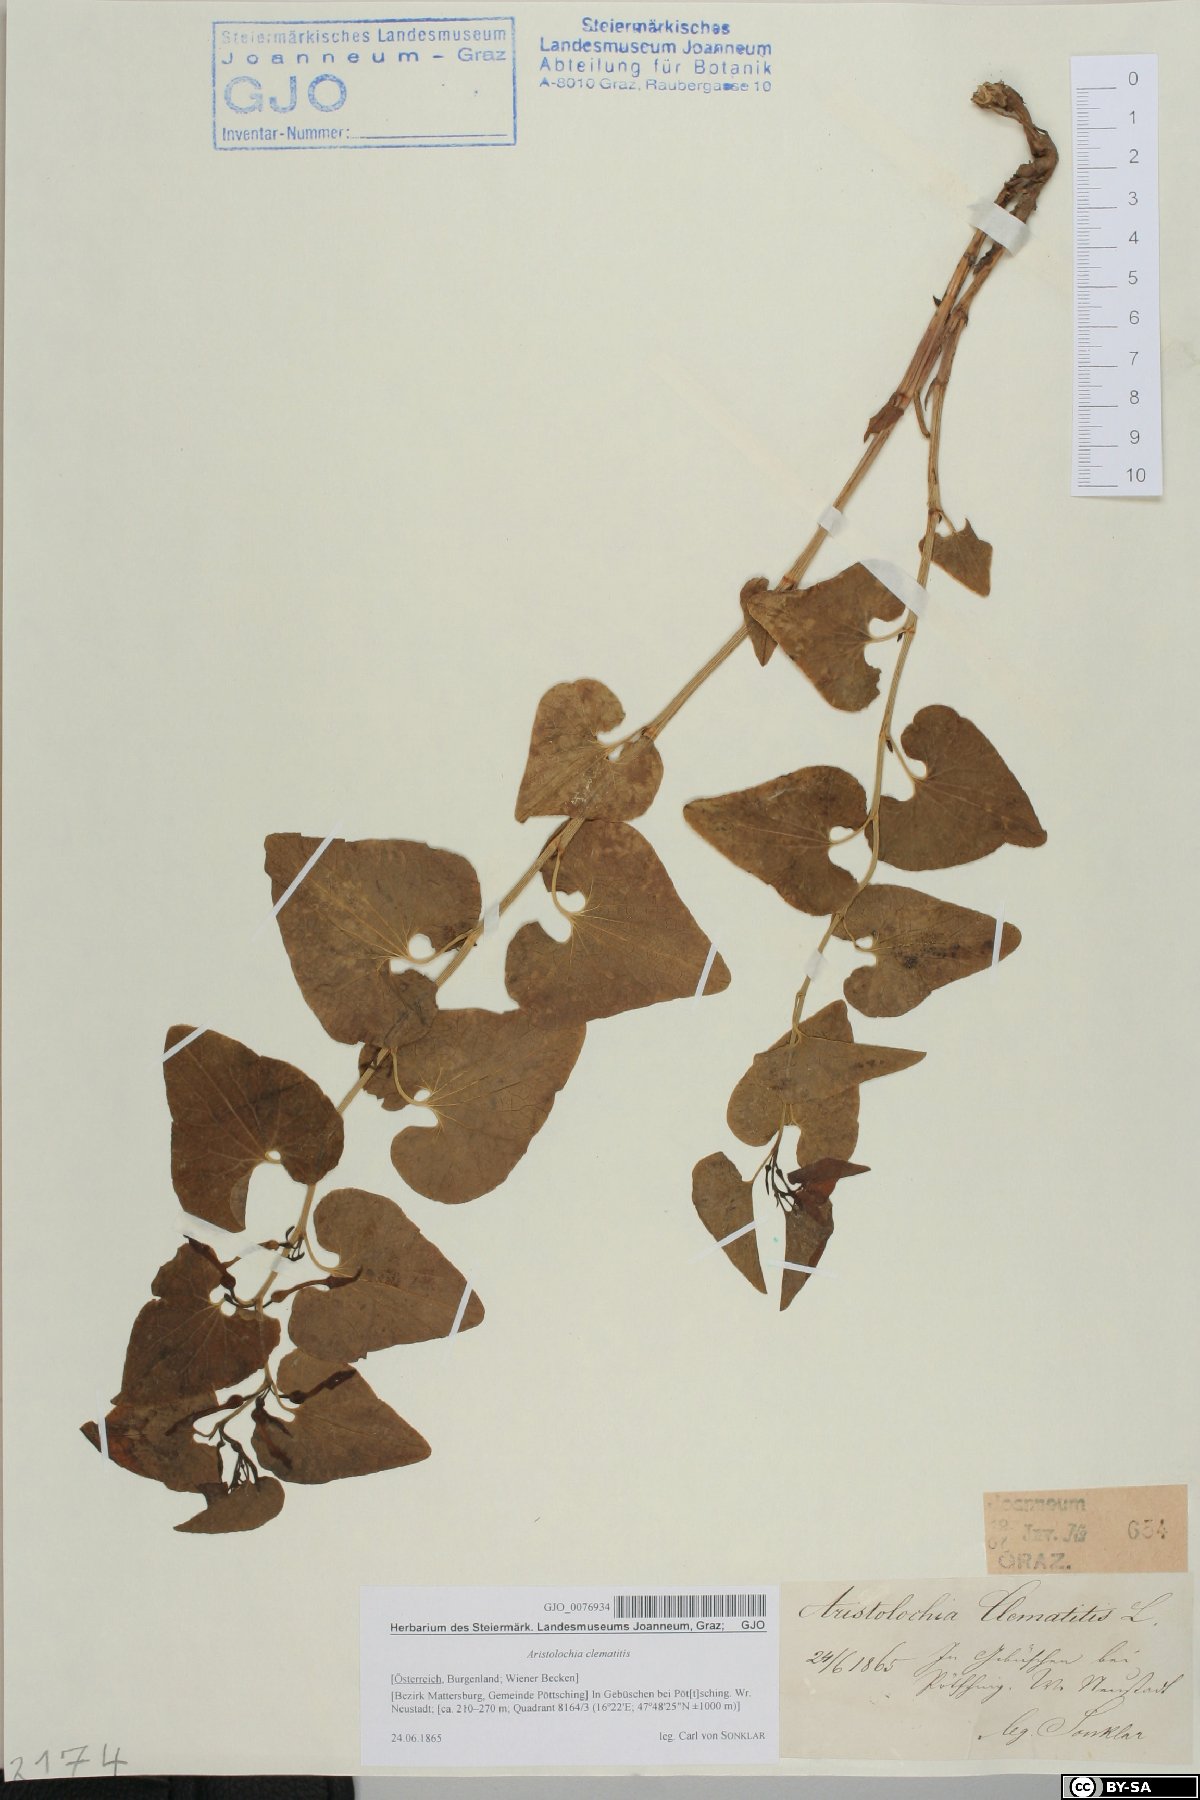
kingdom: Plantae
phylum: Tracheophyta
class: Magnoliopsida
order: Piperales
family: Aristolochiaceae
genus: Aristolochia
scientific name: Aristolochia clematitis
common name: Birthwort
